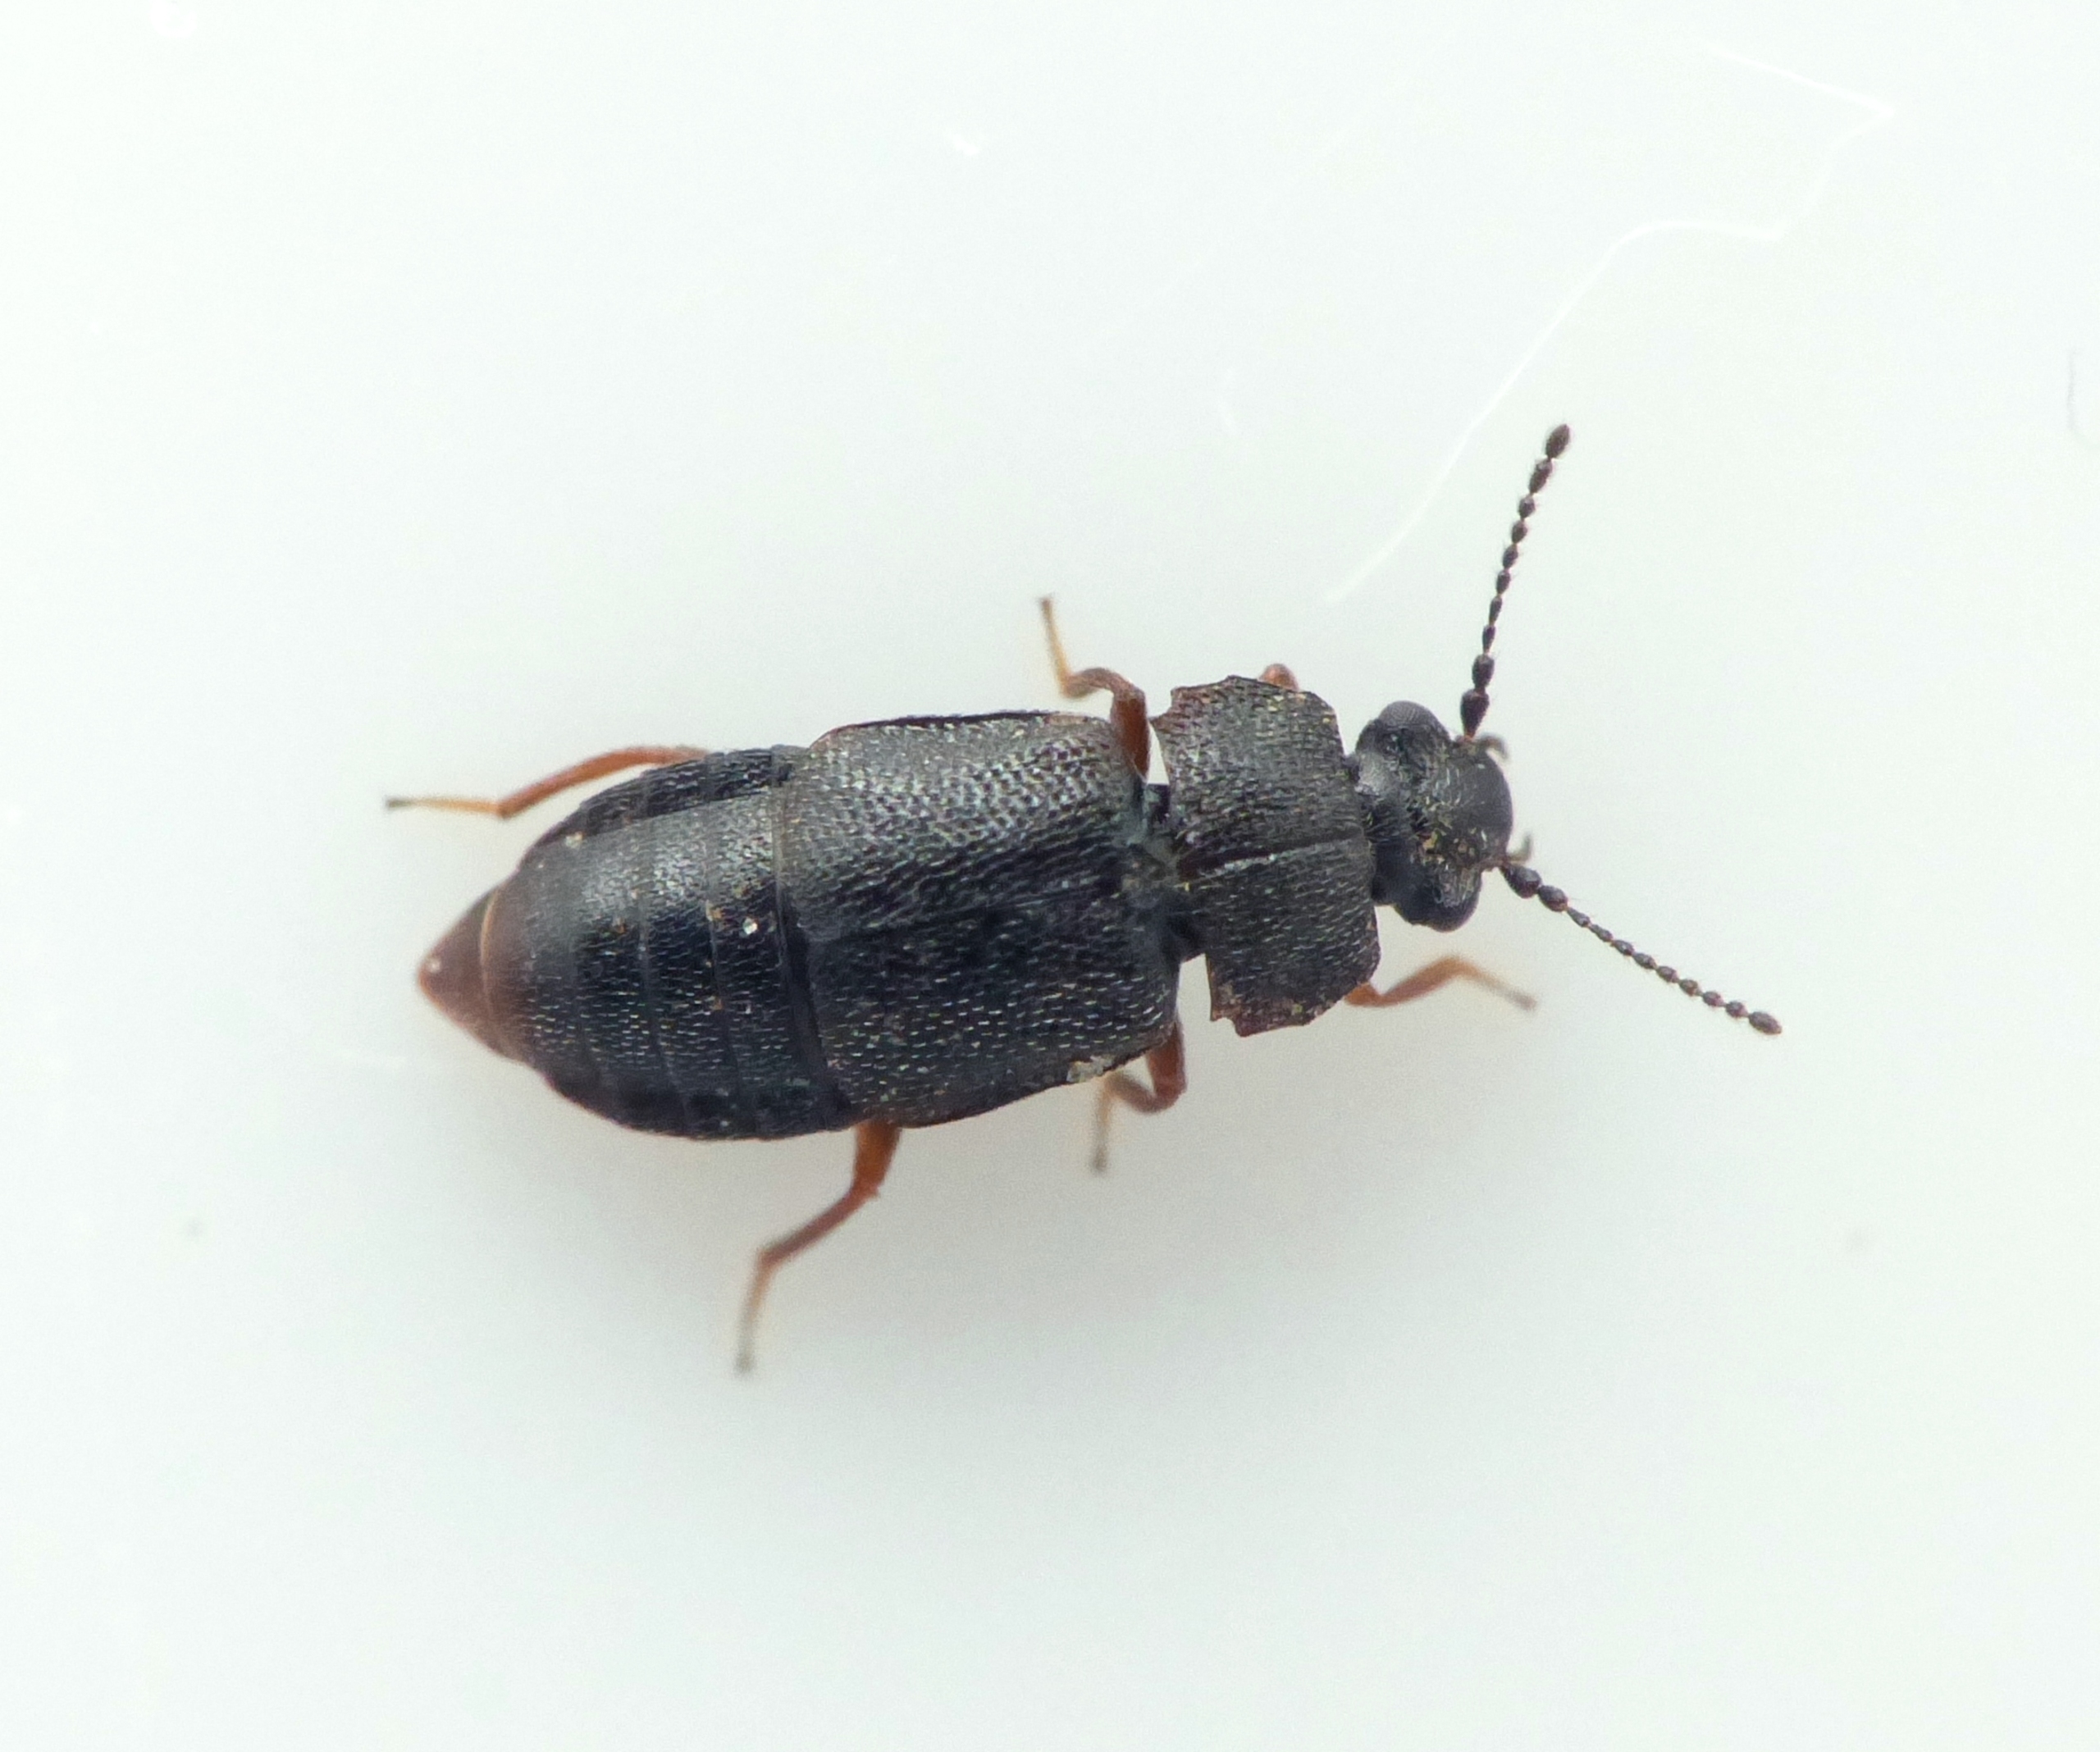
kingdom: Animalia
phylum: Arthropoda
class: Insecta
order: Coleoptera
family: Staphylinidae
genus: Megarthrus
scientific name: Megarthrus depressus
